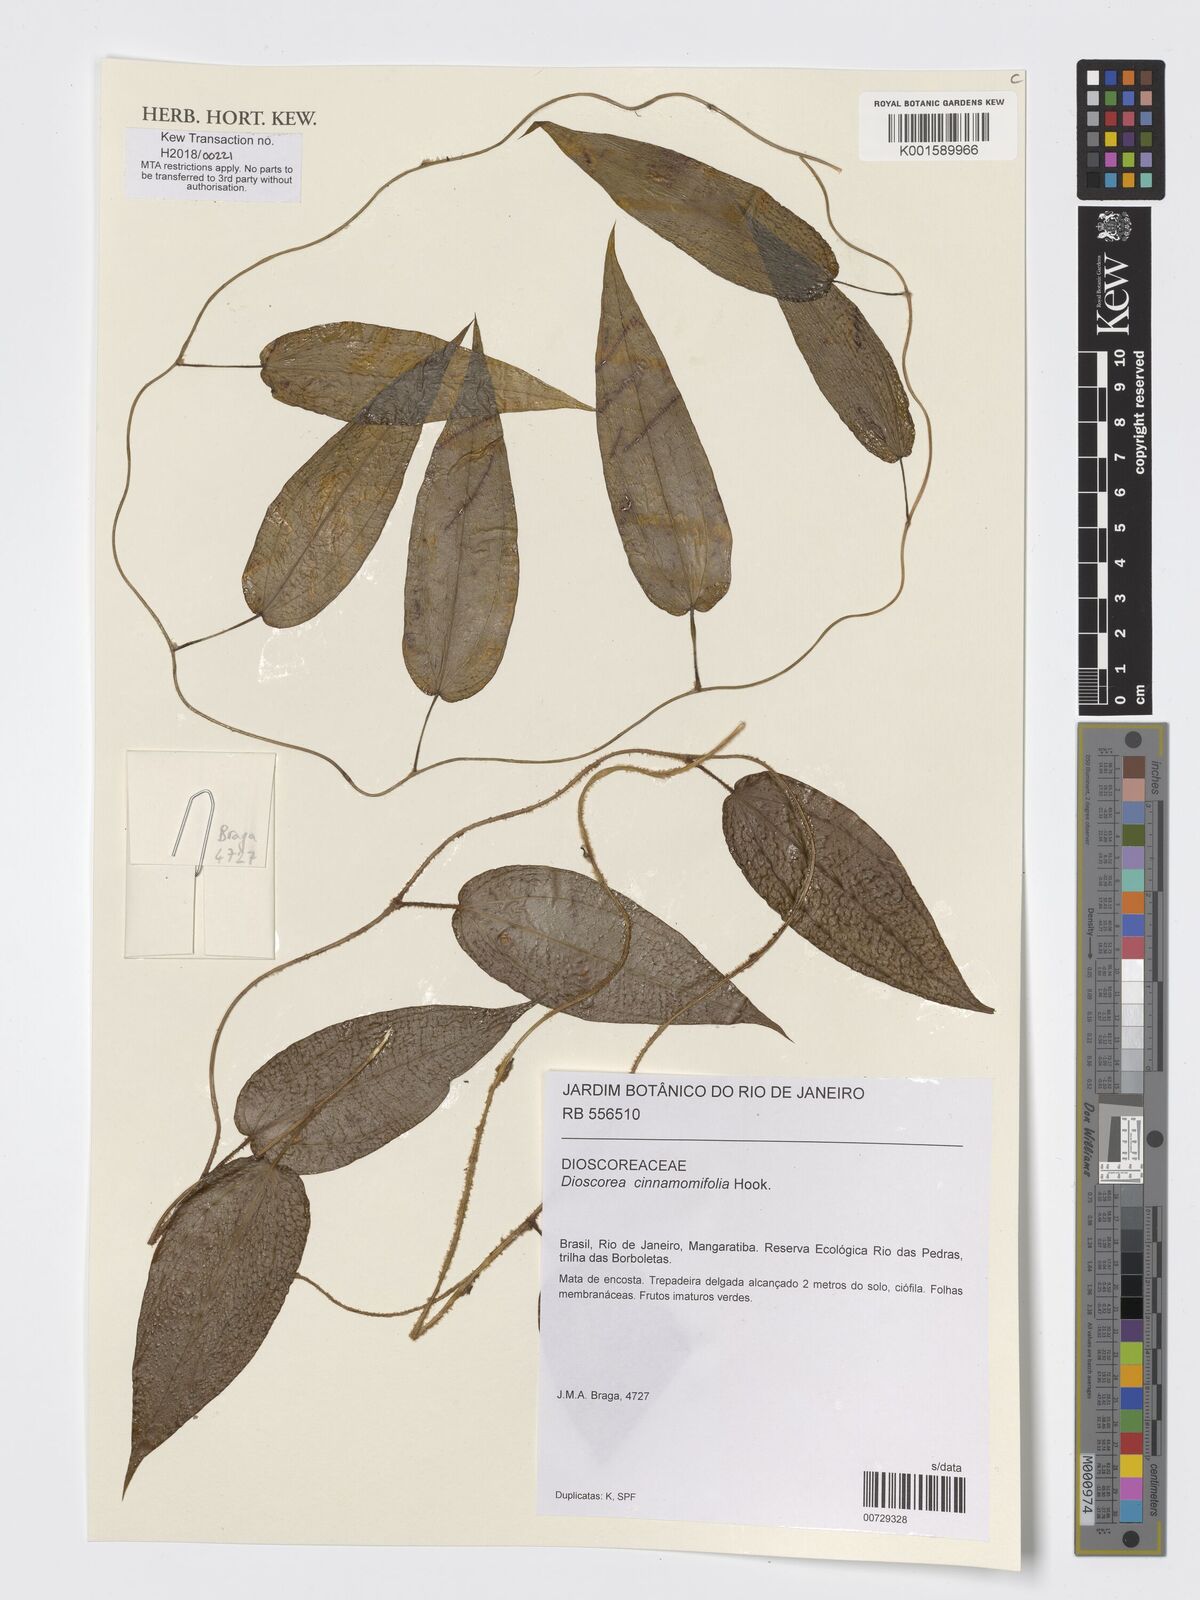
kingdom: Plantae
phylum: Tracheophyta
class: Liliopsida
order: Dioscoreales
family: Dioscoreaceae
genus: Dioscorea
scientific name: Dioscorea cinnamomifolia
